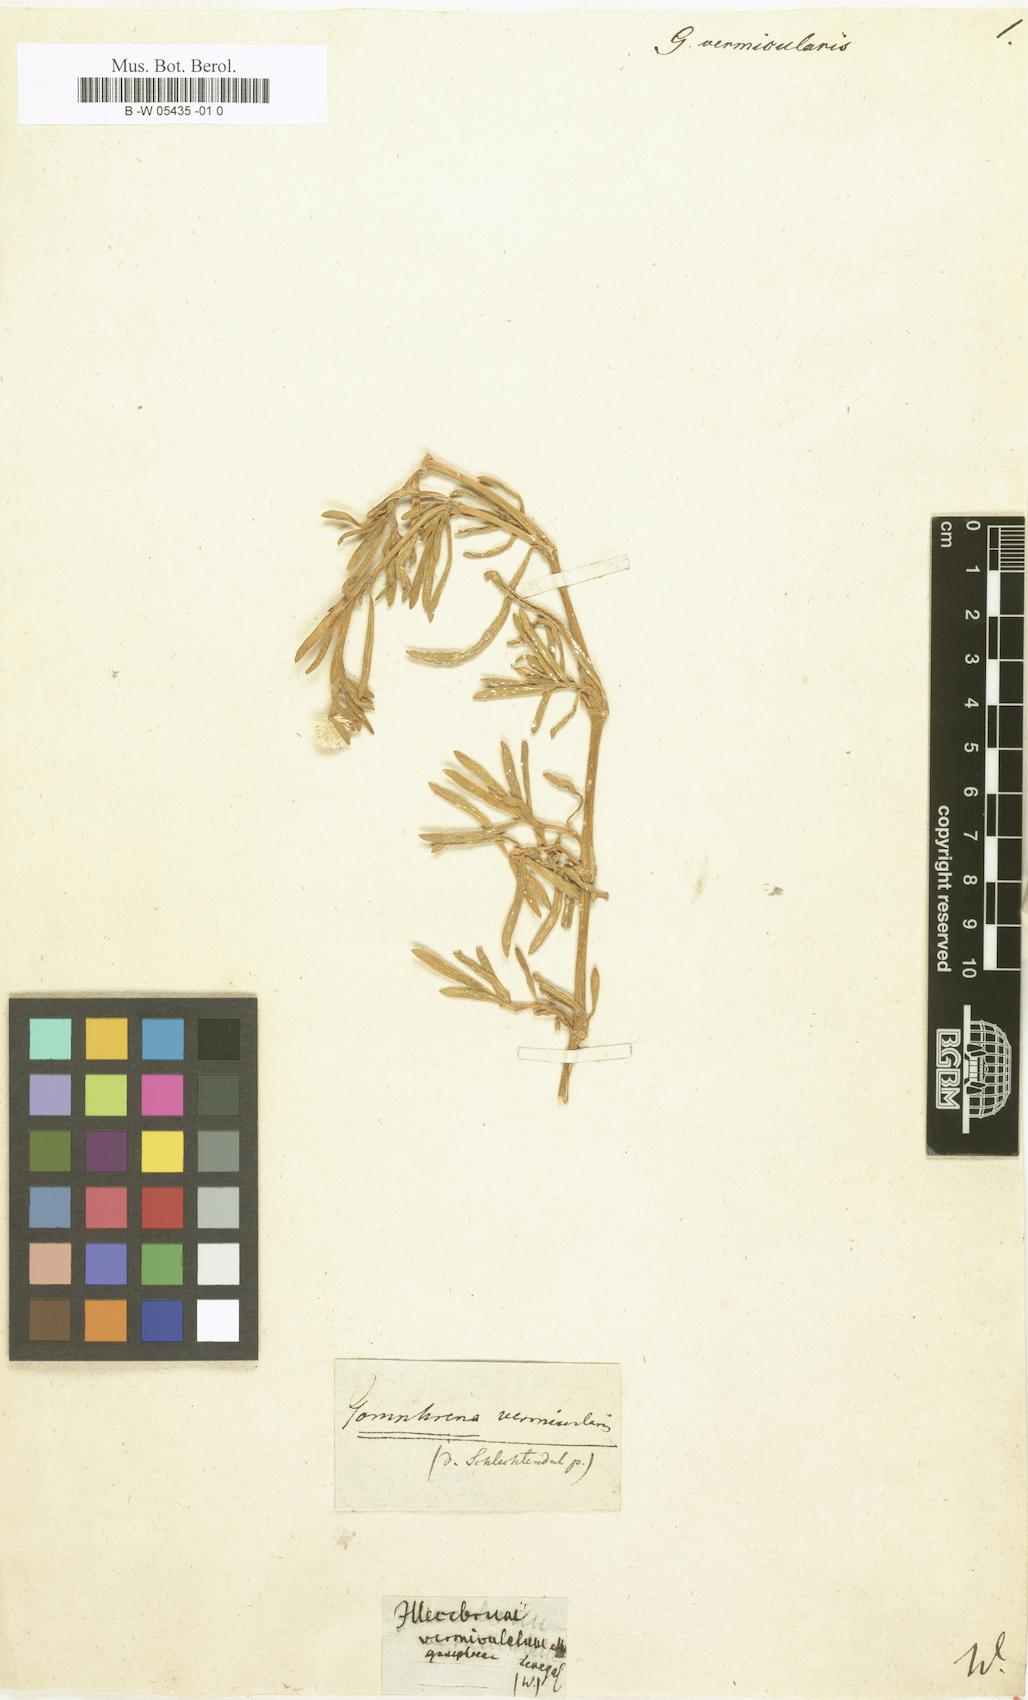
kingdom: Plantae
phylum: Tracheophyta
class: Magnoliopsida
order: Caryophyllales
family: Amaranthaceae
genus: Gomphrena
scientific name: Gomphrena vermicularis
